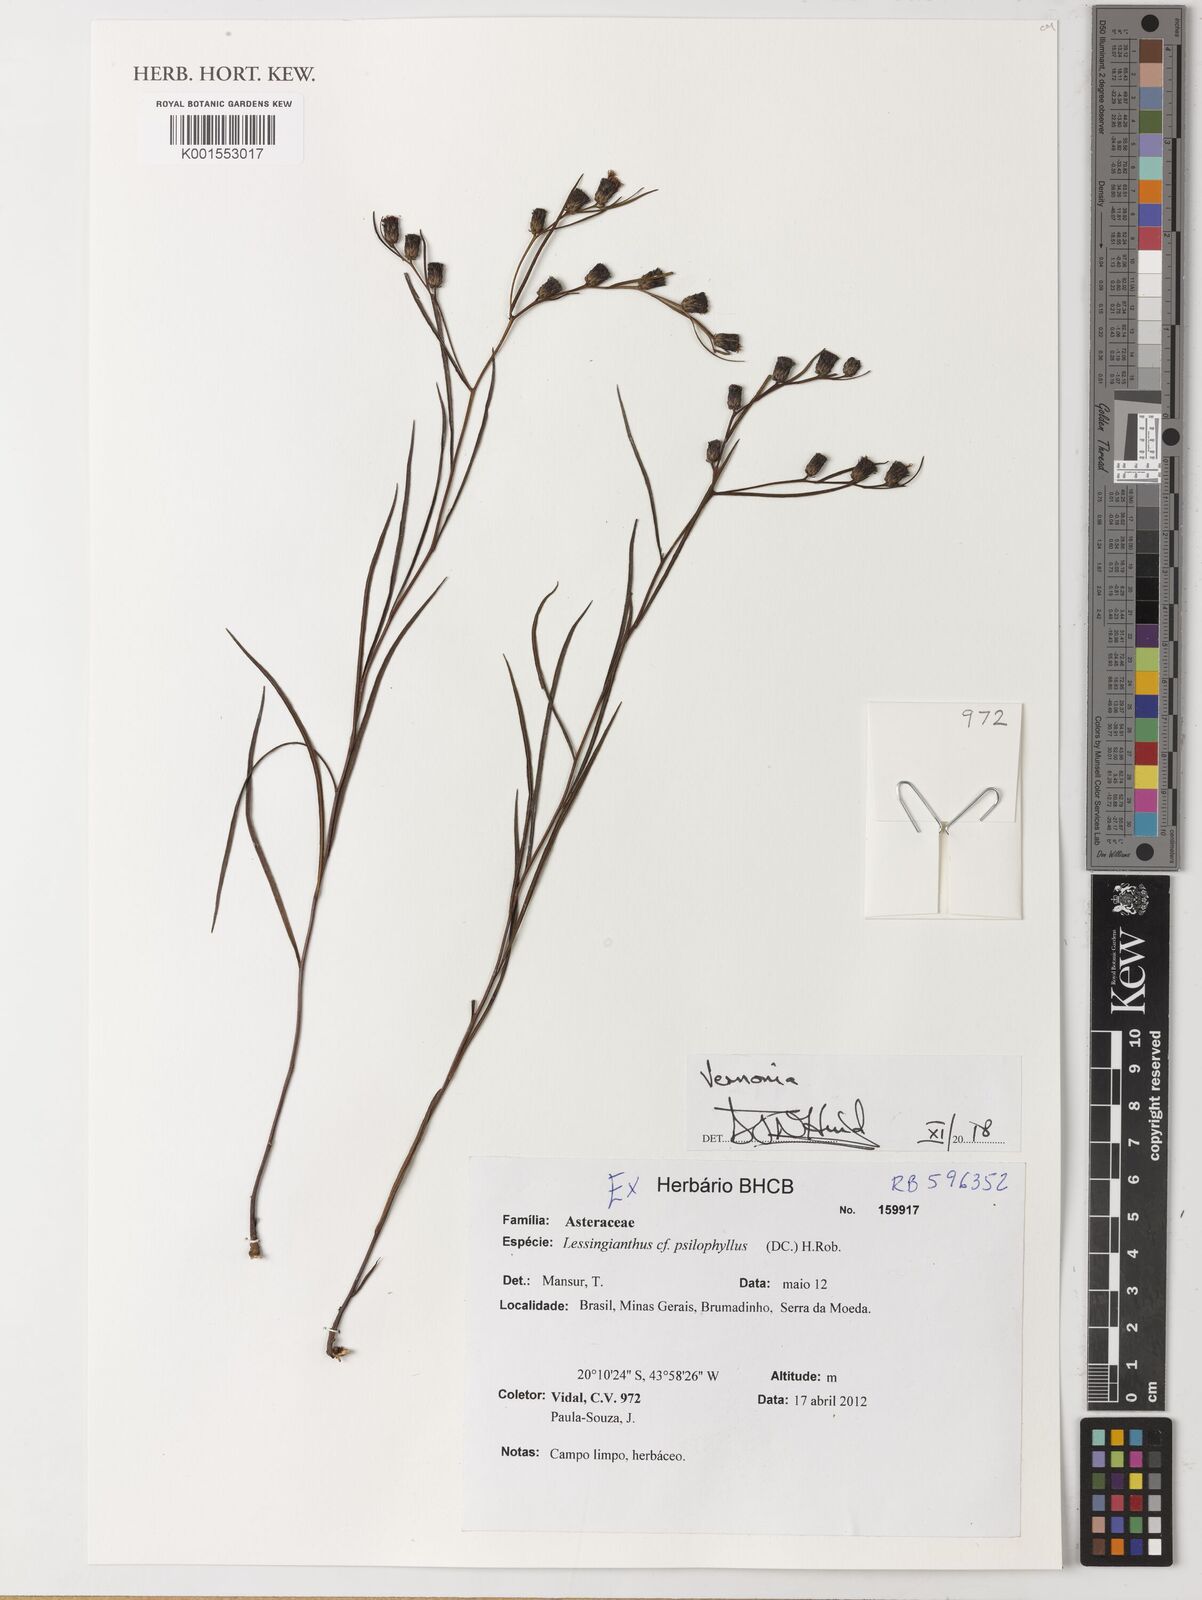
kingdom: Plantae
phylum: Tracheophyta
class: Magnoliopsida
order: Asterales
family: Asteraceae
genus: Lessingianthus
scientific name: Lessingianthus psilophyllus
